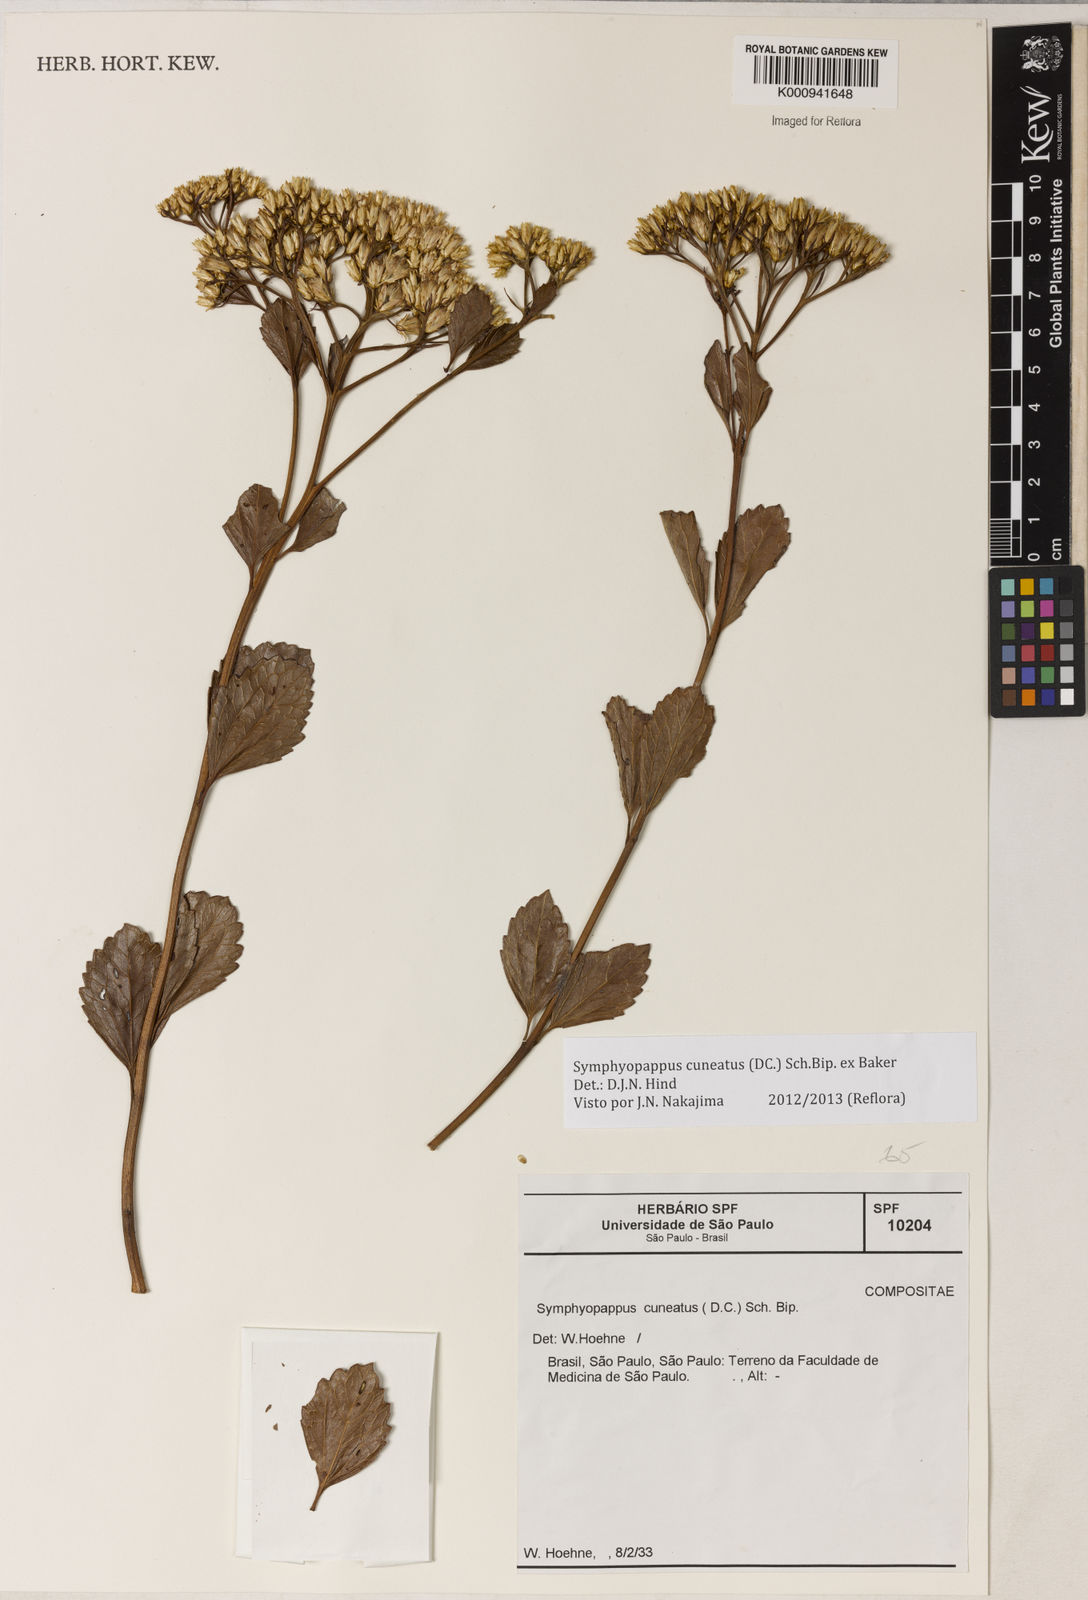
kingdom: Plantae
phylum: Tracheophyta
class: Magnoliopsida
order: Asterales
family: Asteraceae
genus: Symphyopappus
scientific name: Symphyopappus cuneatus
